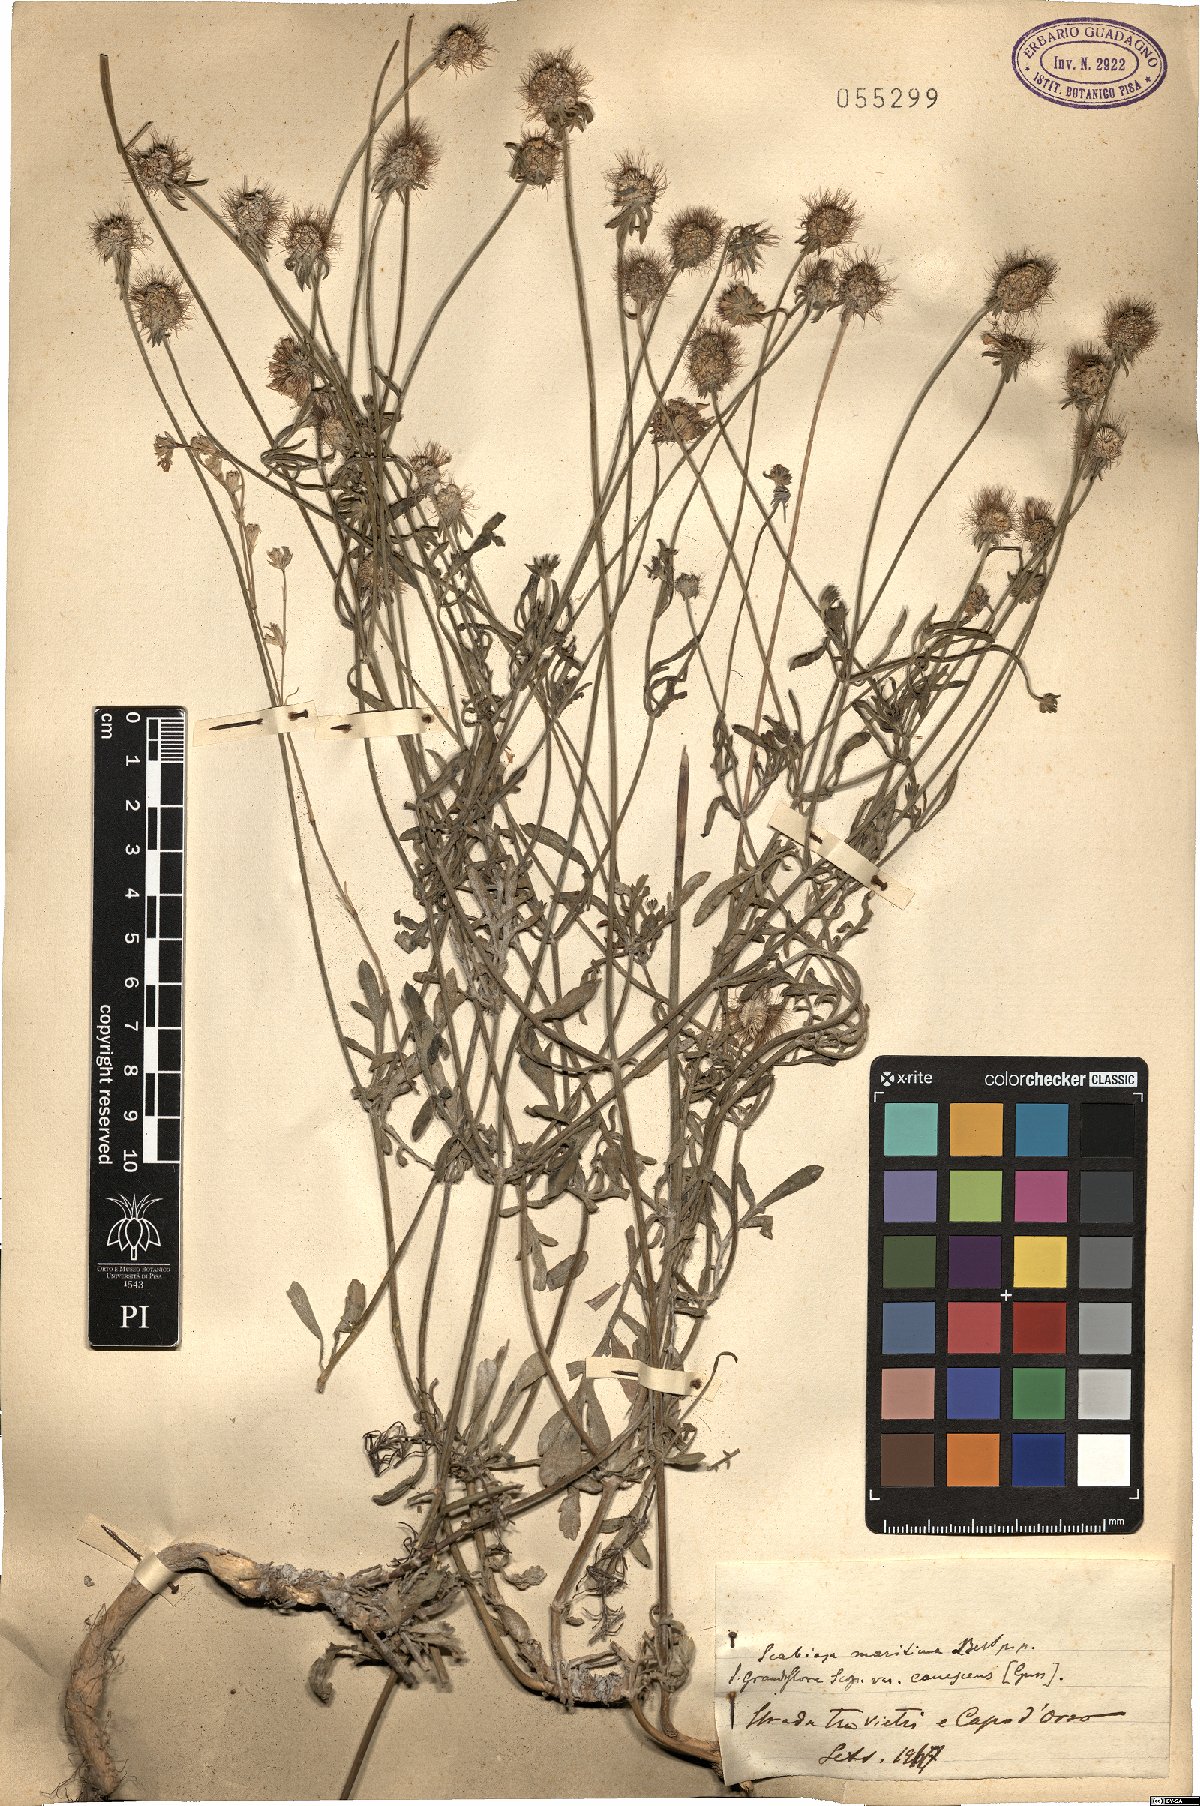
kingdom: Plantae
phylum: Tracheophyta
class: Magnoliopsida
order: Dipsacales
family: Caprifoliaceae
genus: Sixalix
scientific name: Sixalix maritima
